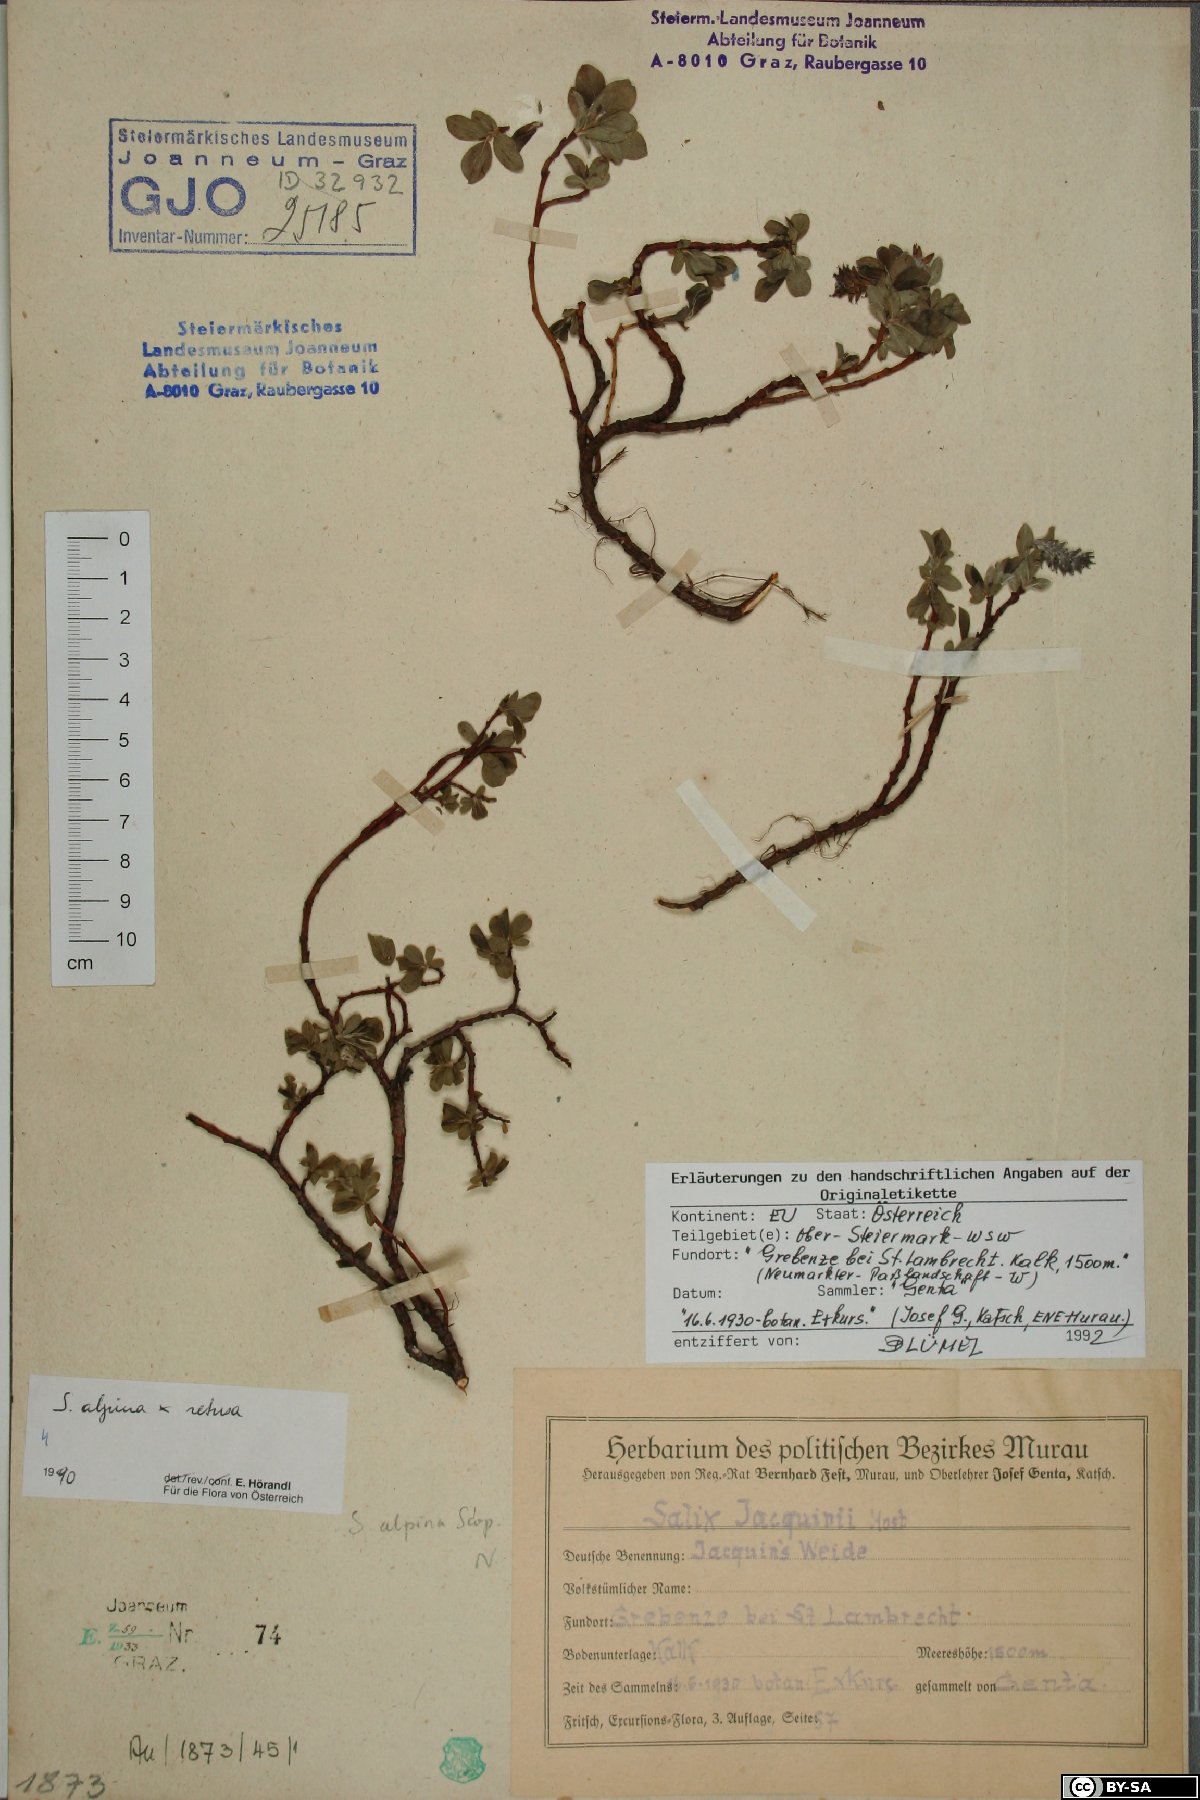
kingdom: Plantae
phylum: Tracheophyta
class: Magnoliopsida
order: Malpighiales
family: Salicaceae
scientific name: Salicaceae
